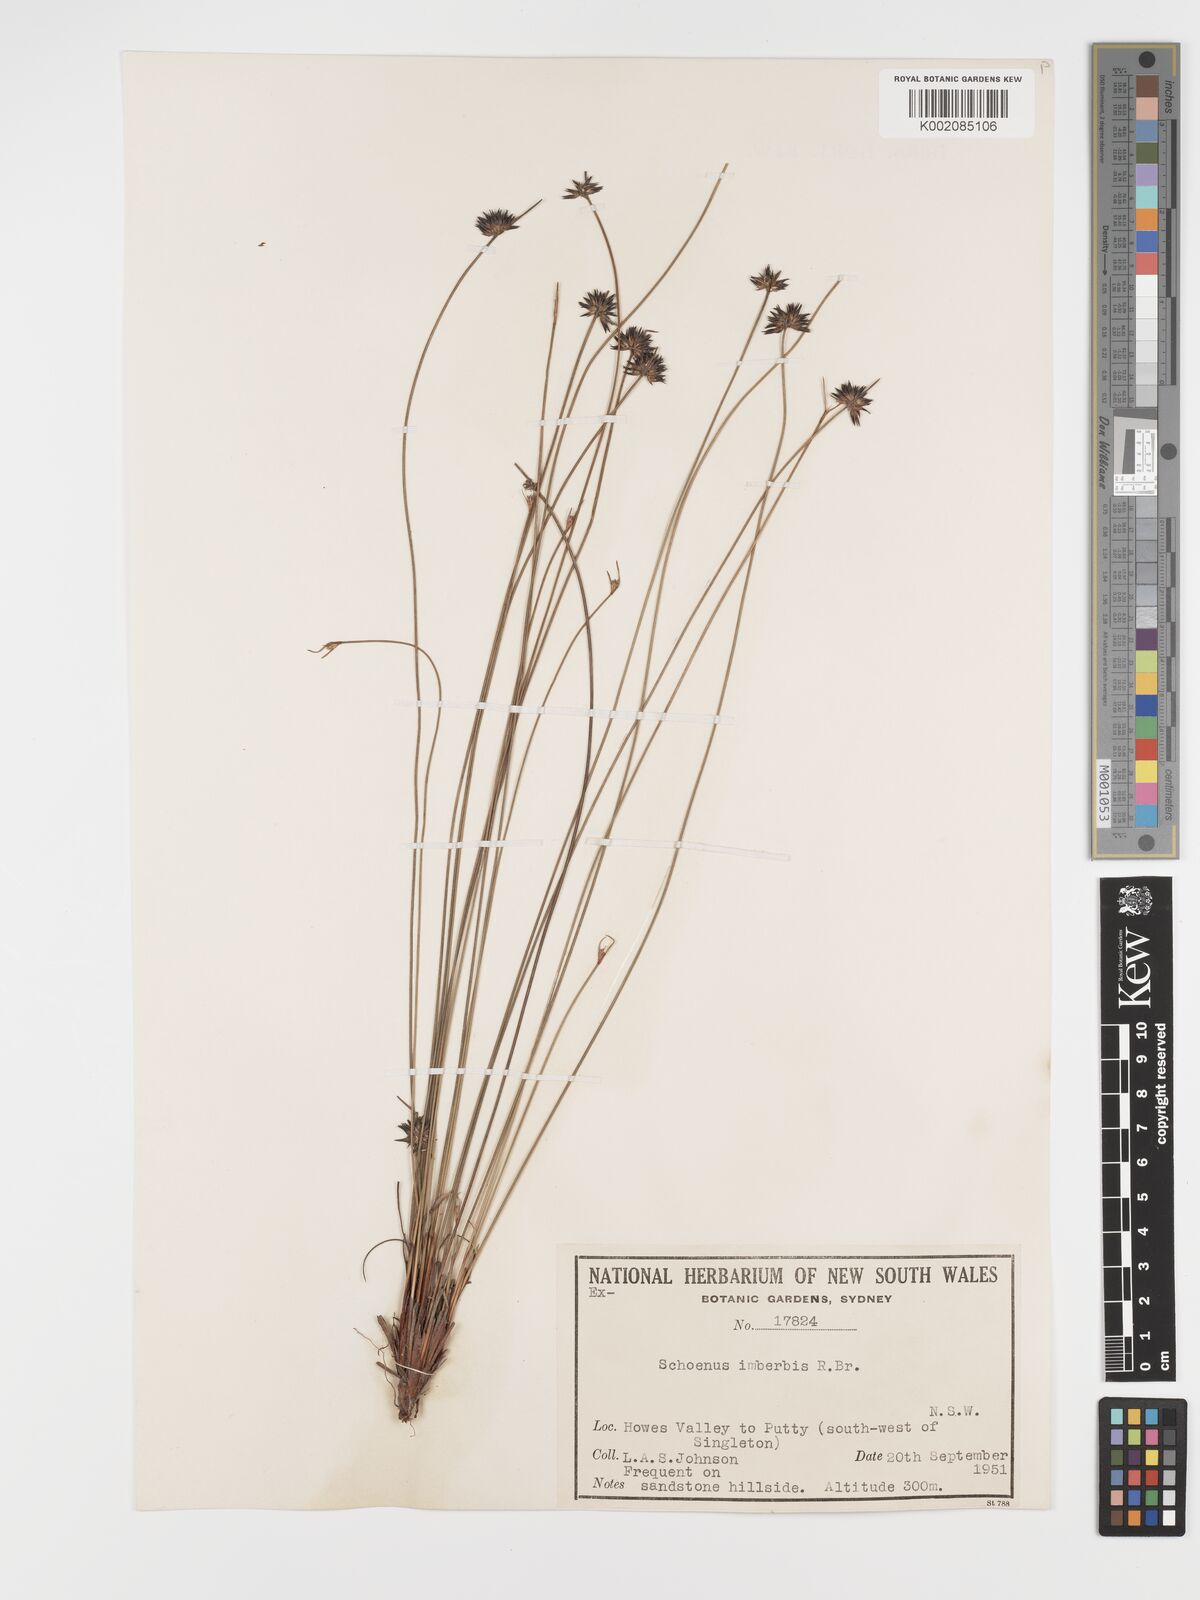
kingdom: Plantae
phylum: Tracheophyta
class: Liliopsida
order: Poales
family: Cyperaceae
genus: Schoenus
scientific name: Schoenus imberbis
